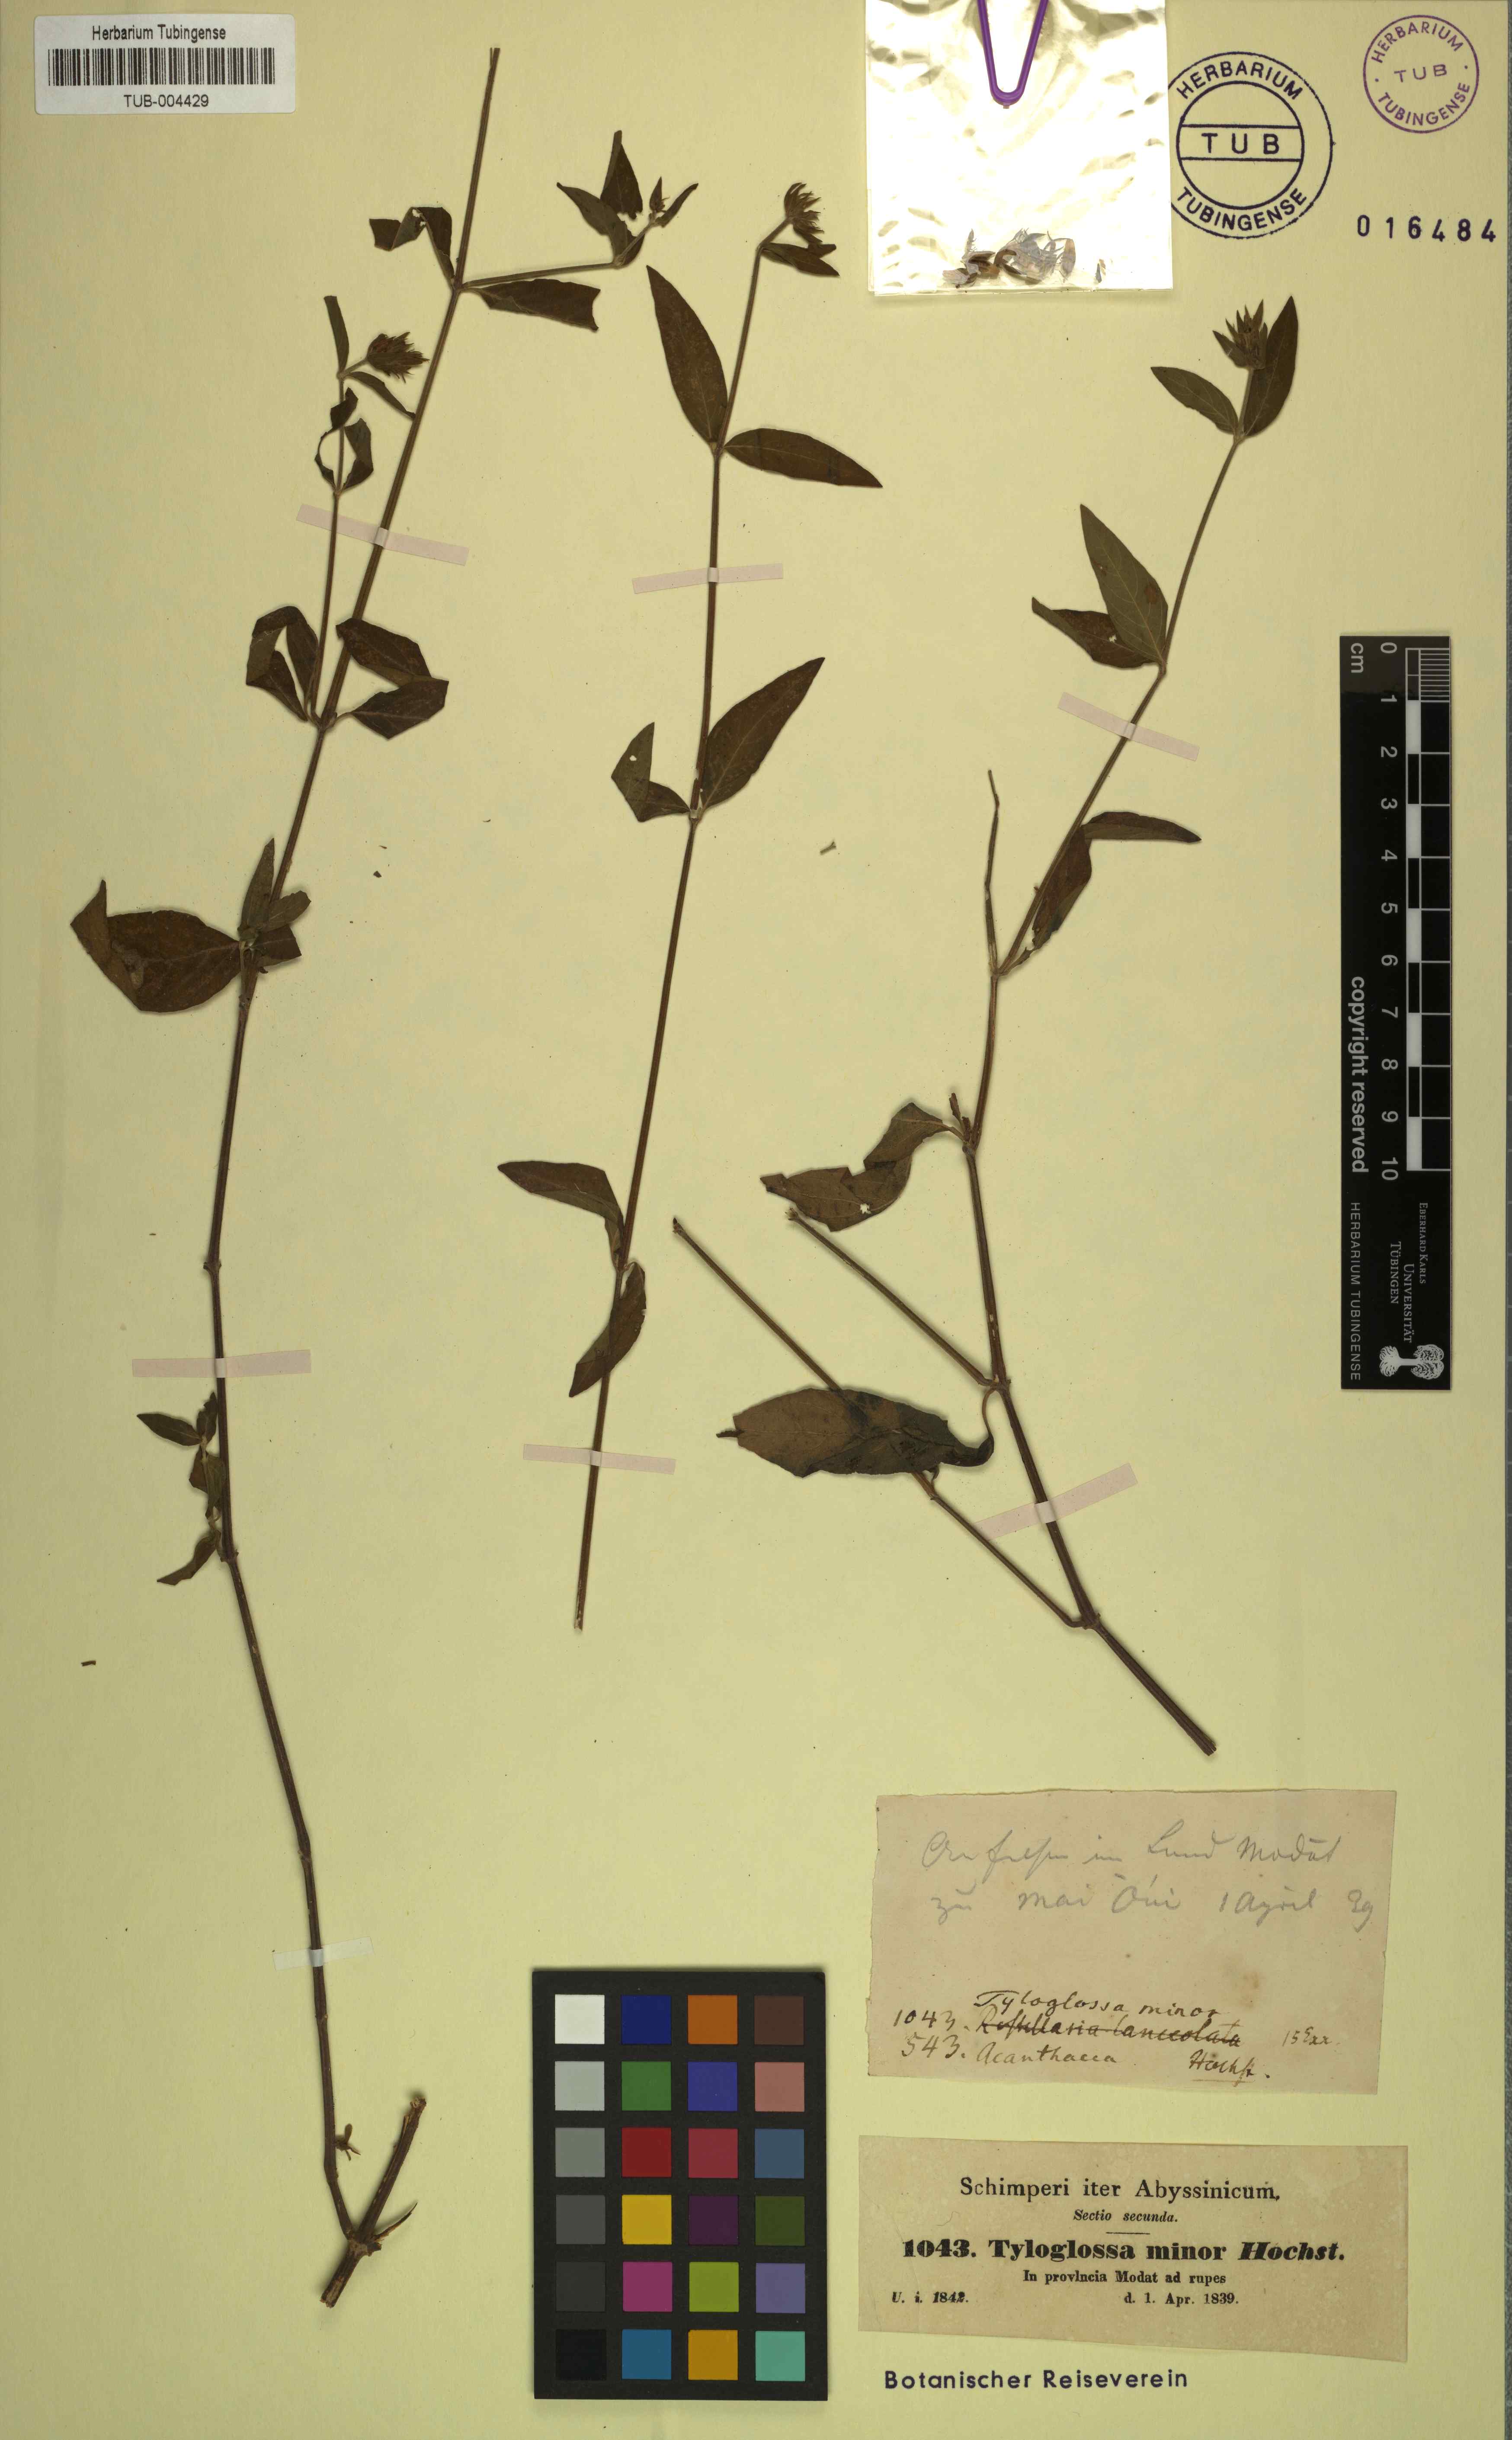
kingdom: Plantae
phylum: Tracheophyta
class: Magnoliopsida
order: Lamiales
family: Acanthaceae
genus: Justicia
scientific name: Justicia flava
